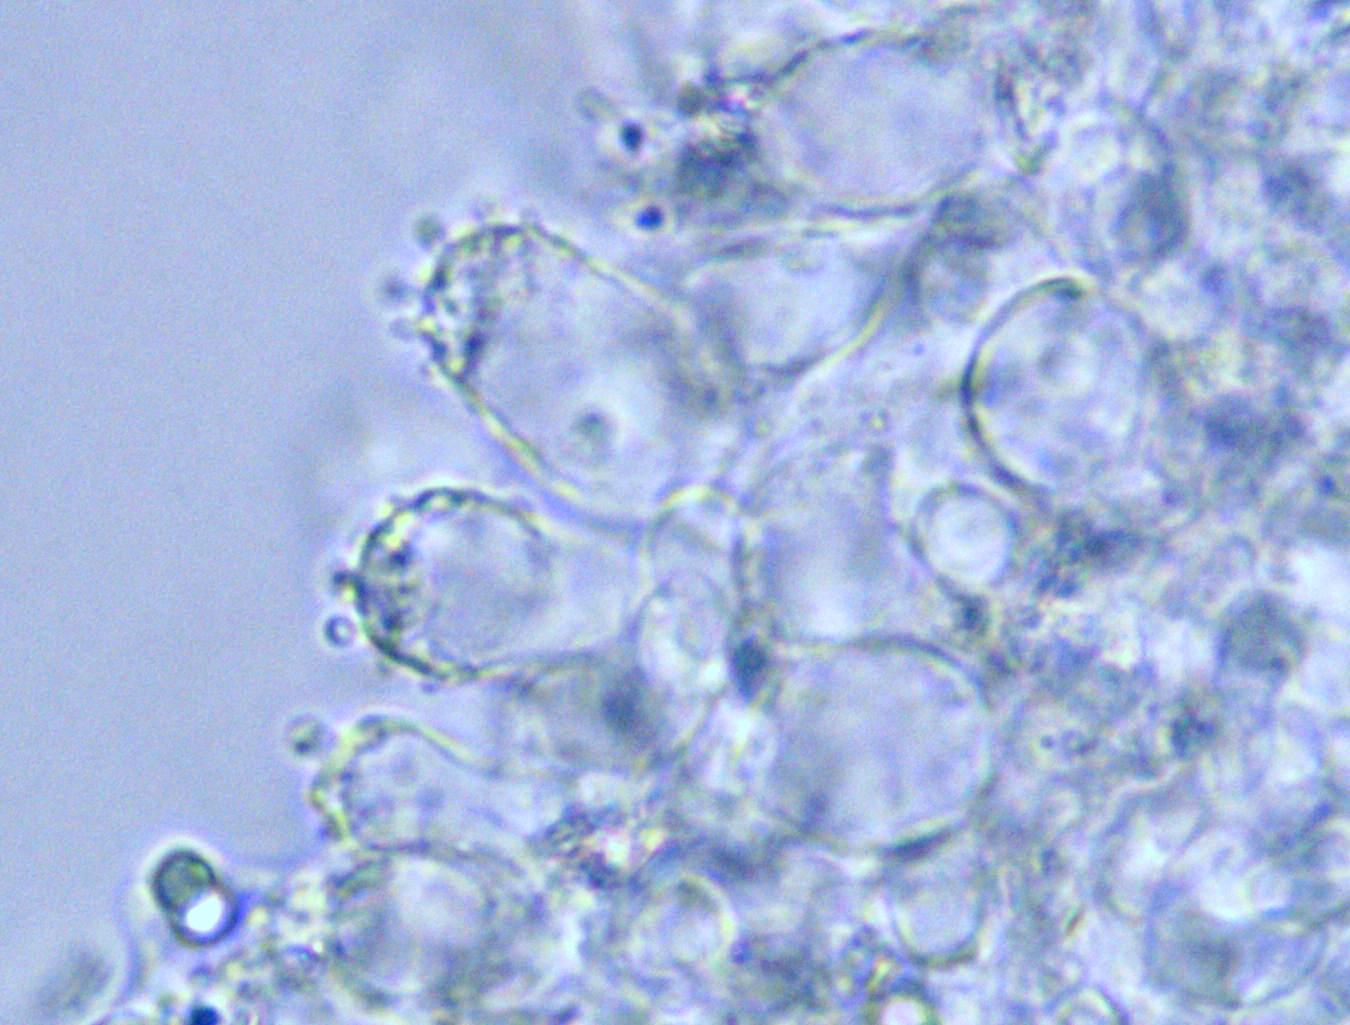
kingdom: Fungi
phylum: Basidiomycota
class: Agaricomycetes
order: Agaricales
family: Mycenaceae
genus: Mycena
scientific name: Mycena filopes
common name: jod-huesvamp
